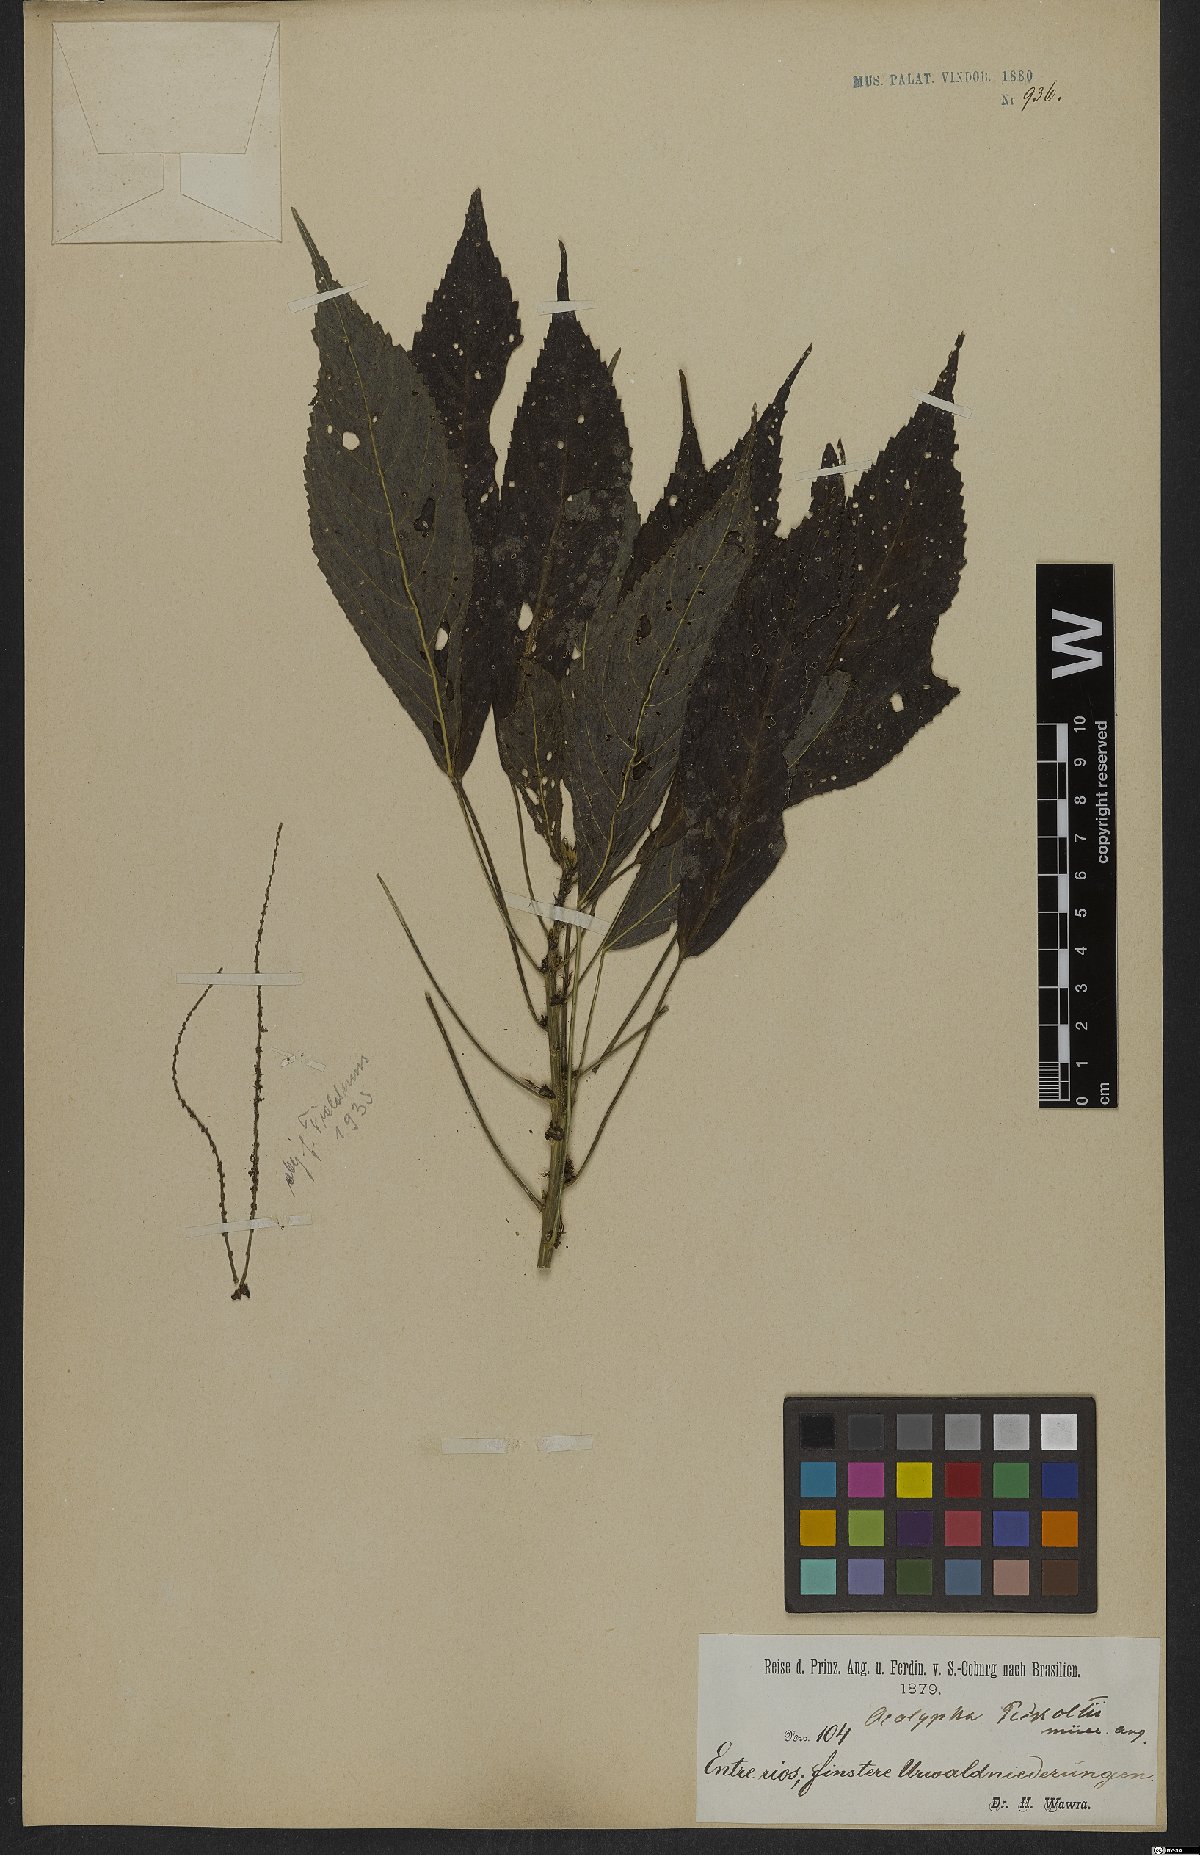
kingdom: Plantae
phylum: Tracheophyta
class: Magnoliopsida
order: Malpighiales
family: Euphorbiaceae
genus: Acalypha
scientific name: Acalypha peckoltii
